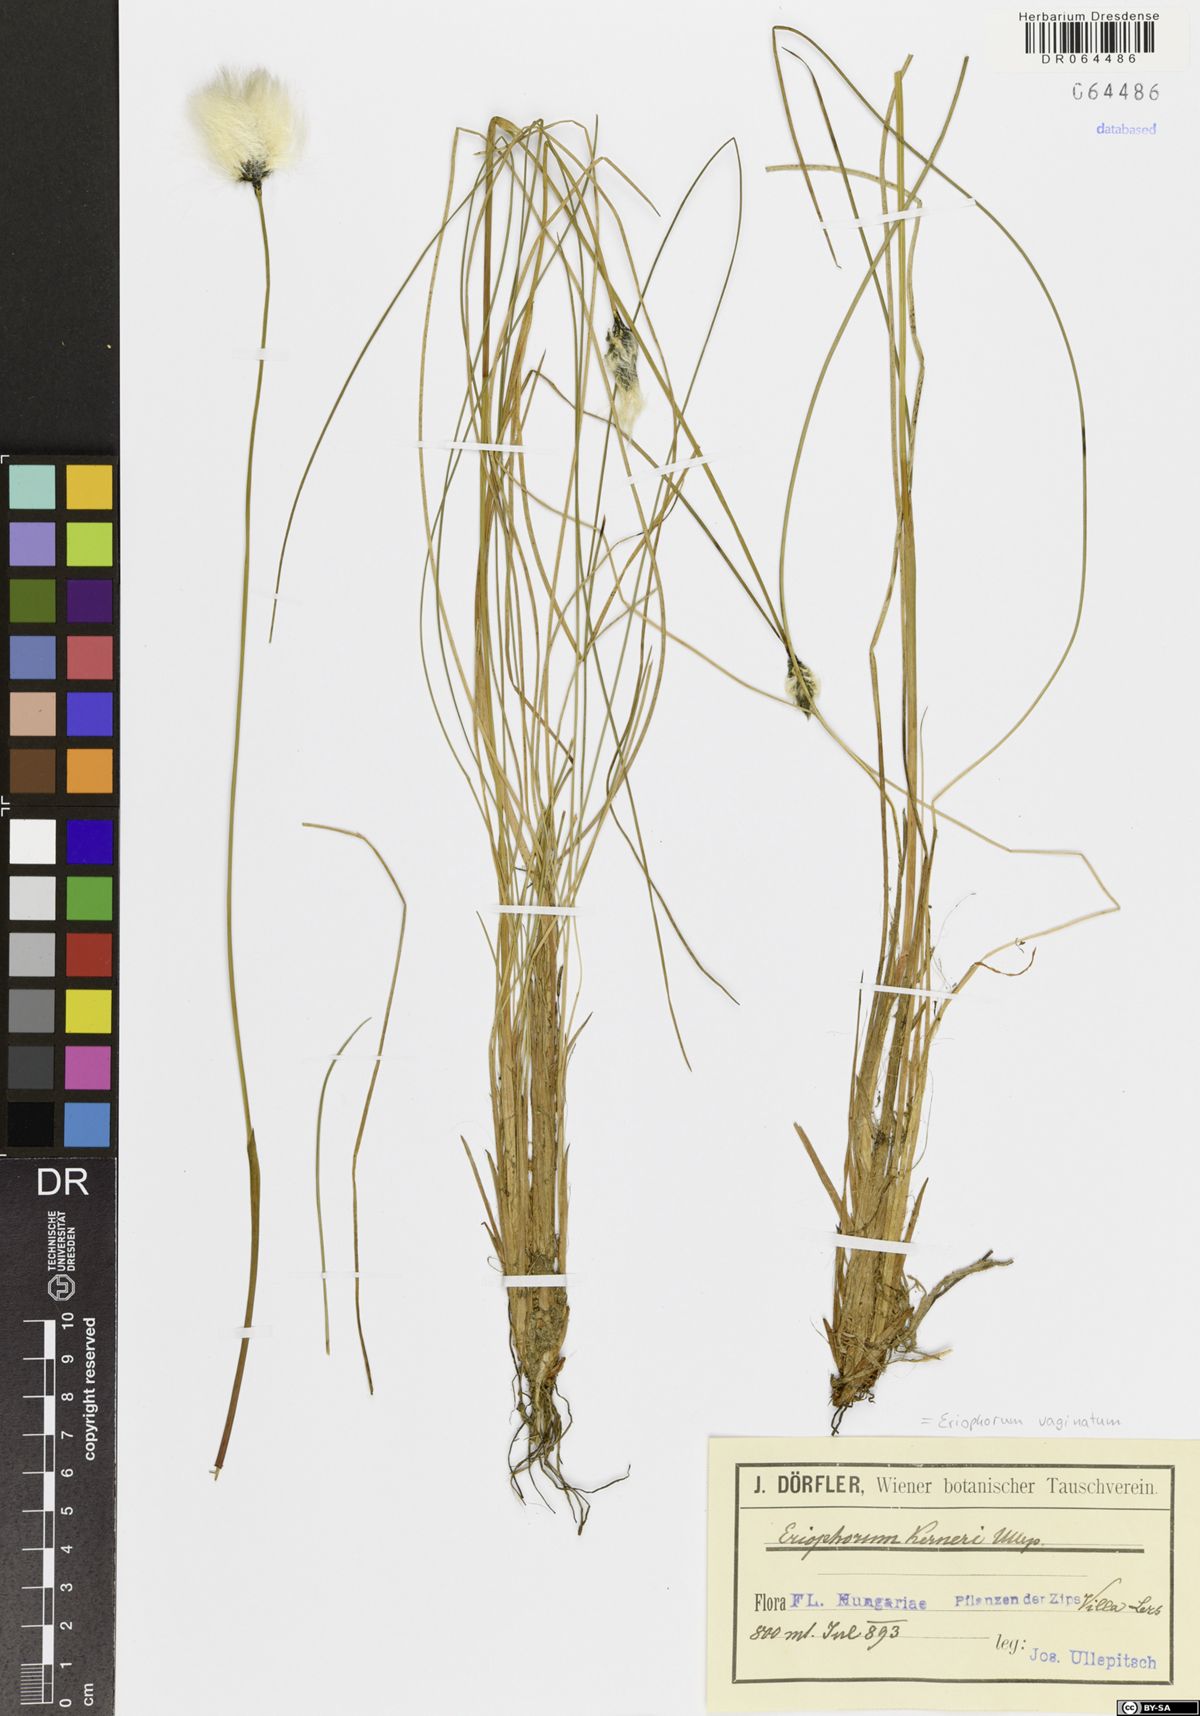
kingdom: Plantae
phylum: Tracheophyta
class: Liliopsida
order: Poales
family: Cyperaceae
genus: Eriophorum
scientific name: Eriophorum vaginatum
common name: Hare's-tail cottongrass
